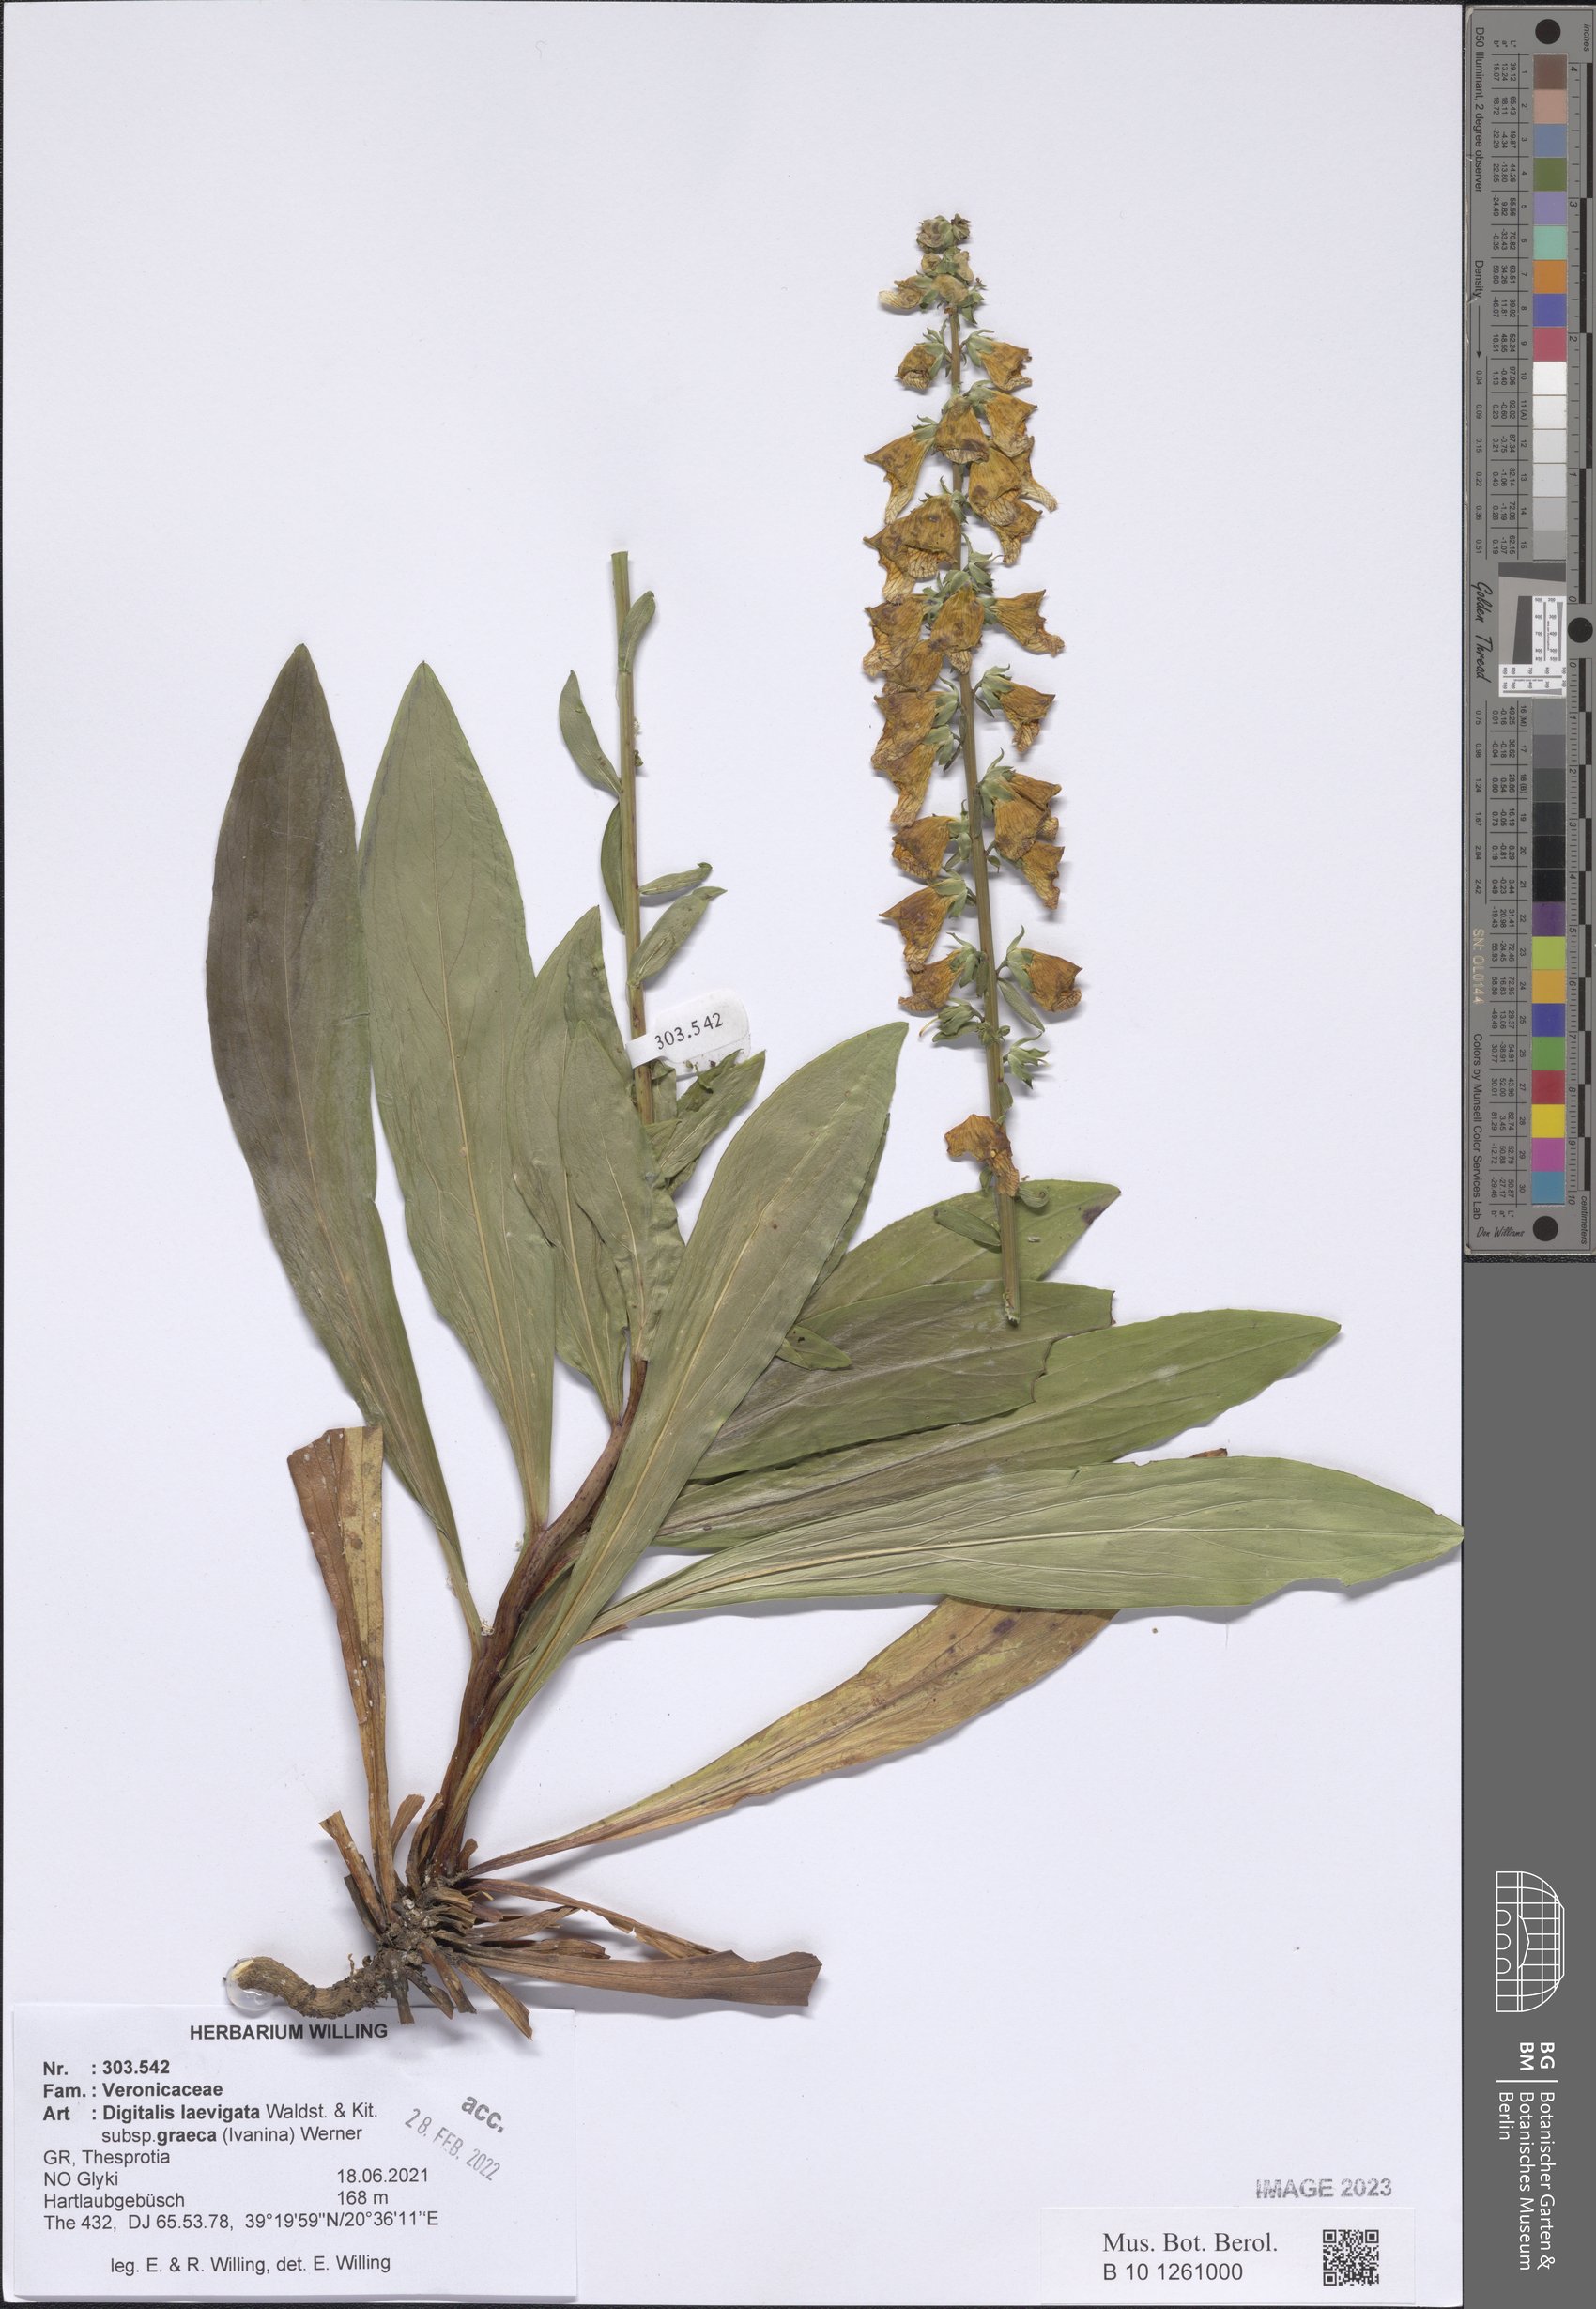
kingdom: Plantae
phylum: Tracheophyta
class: Magnoliopsida
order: Lamiales
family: Plantaginaceae
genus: Digitalis
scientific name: Digitalis laevigata
